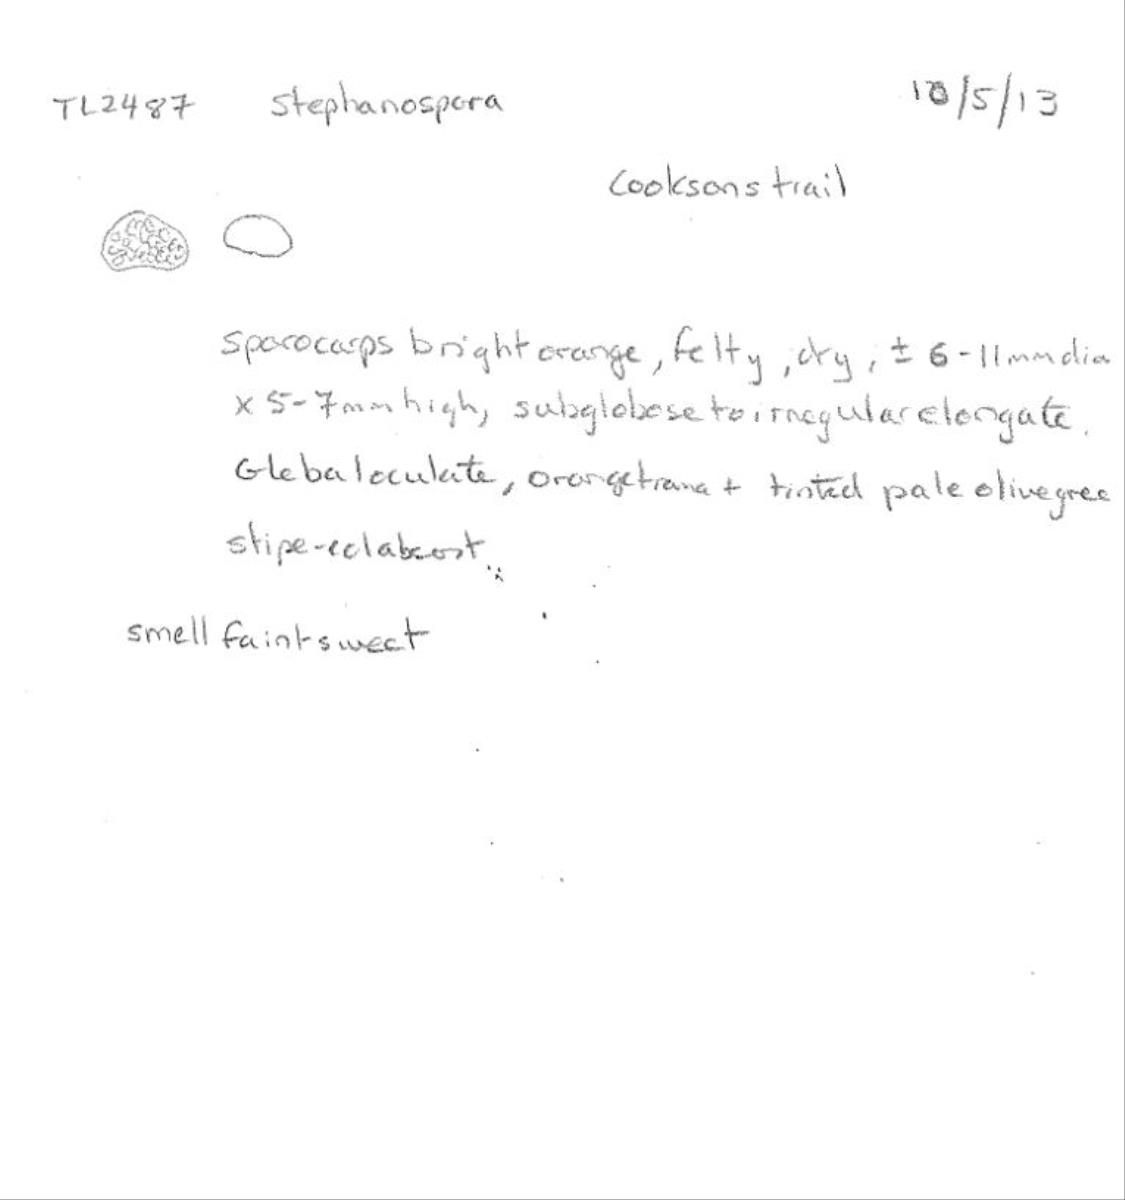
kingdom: Fungi
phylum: Basidiomycota
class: Agaricomycetes
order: Agaricales
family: Stephanosporaceae
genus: Stephanospora
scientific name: Stephanospora kanuka
